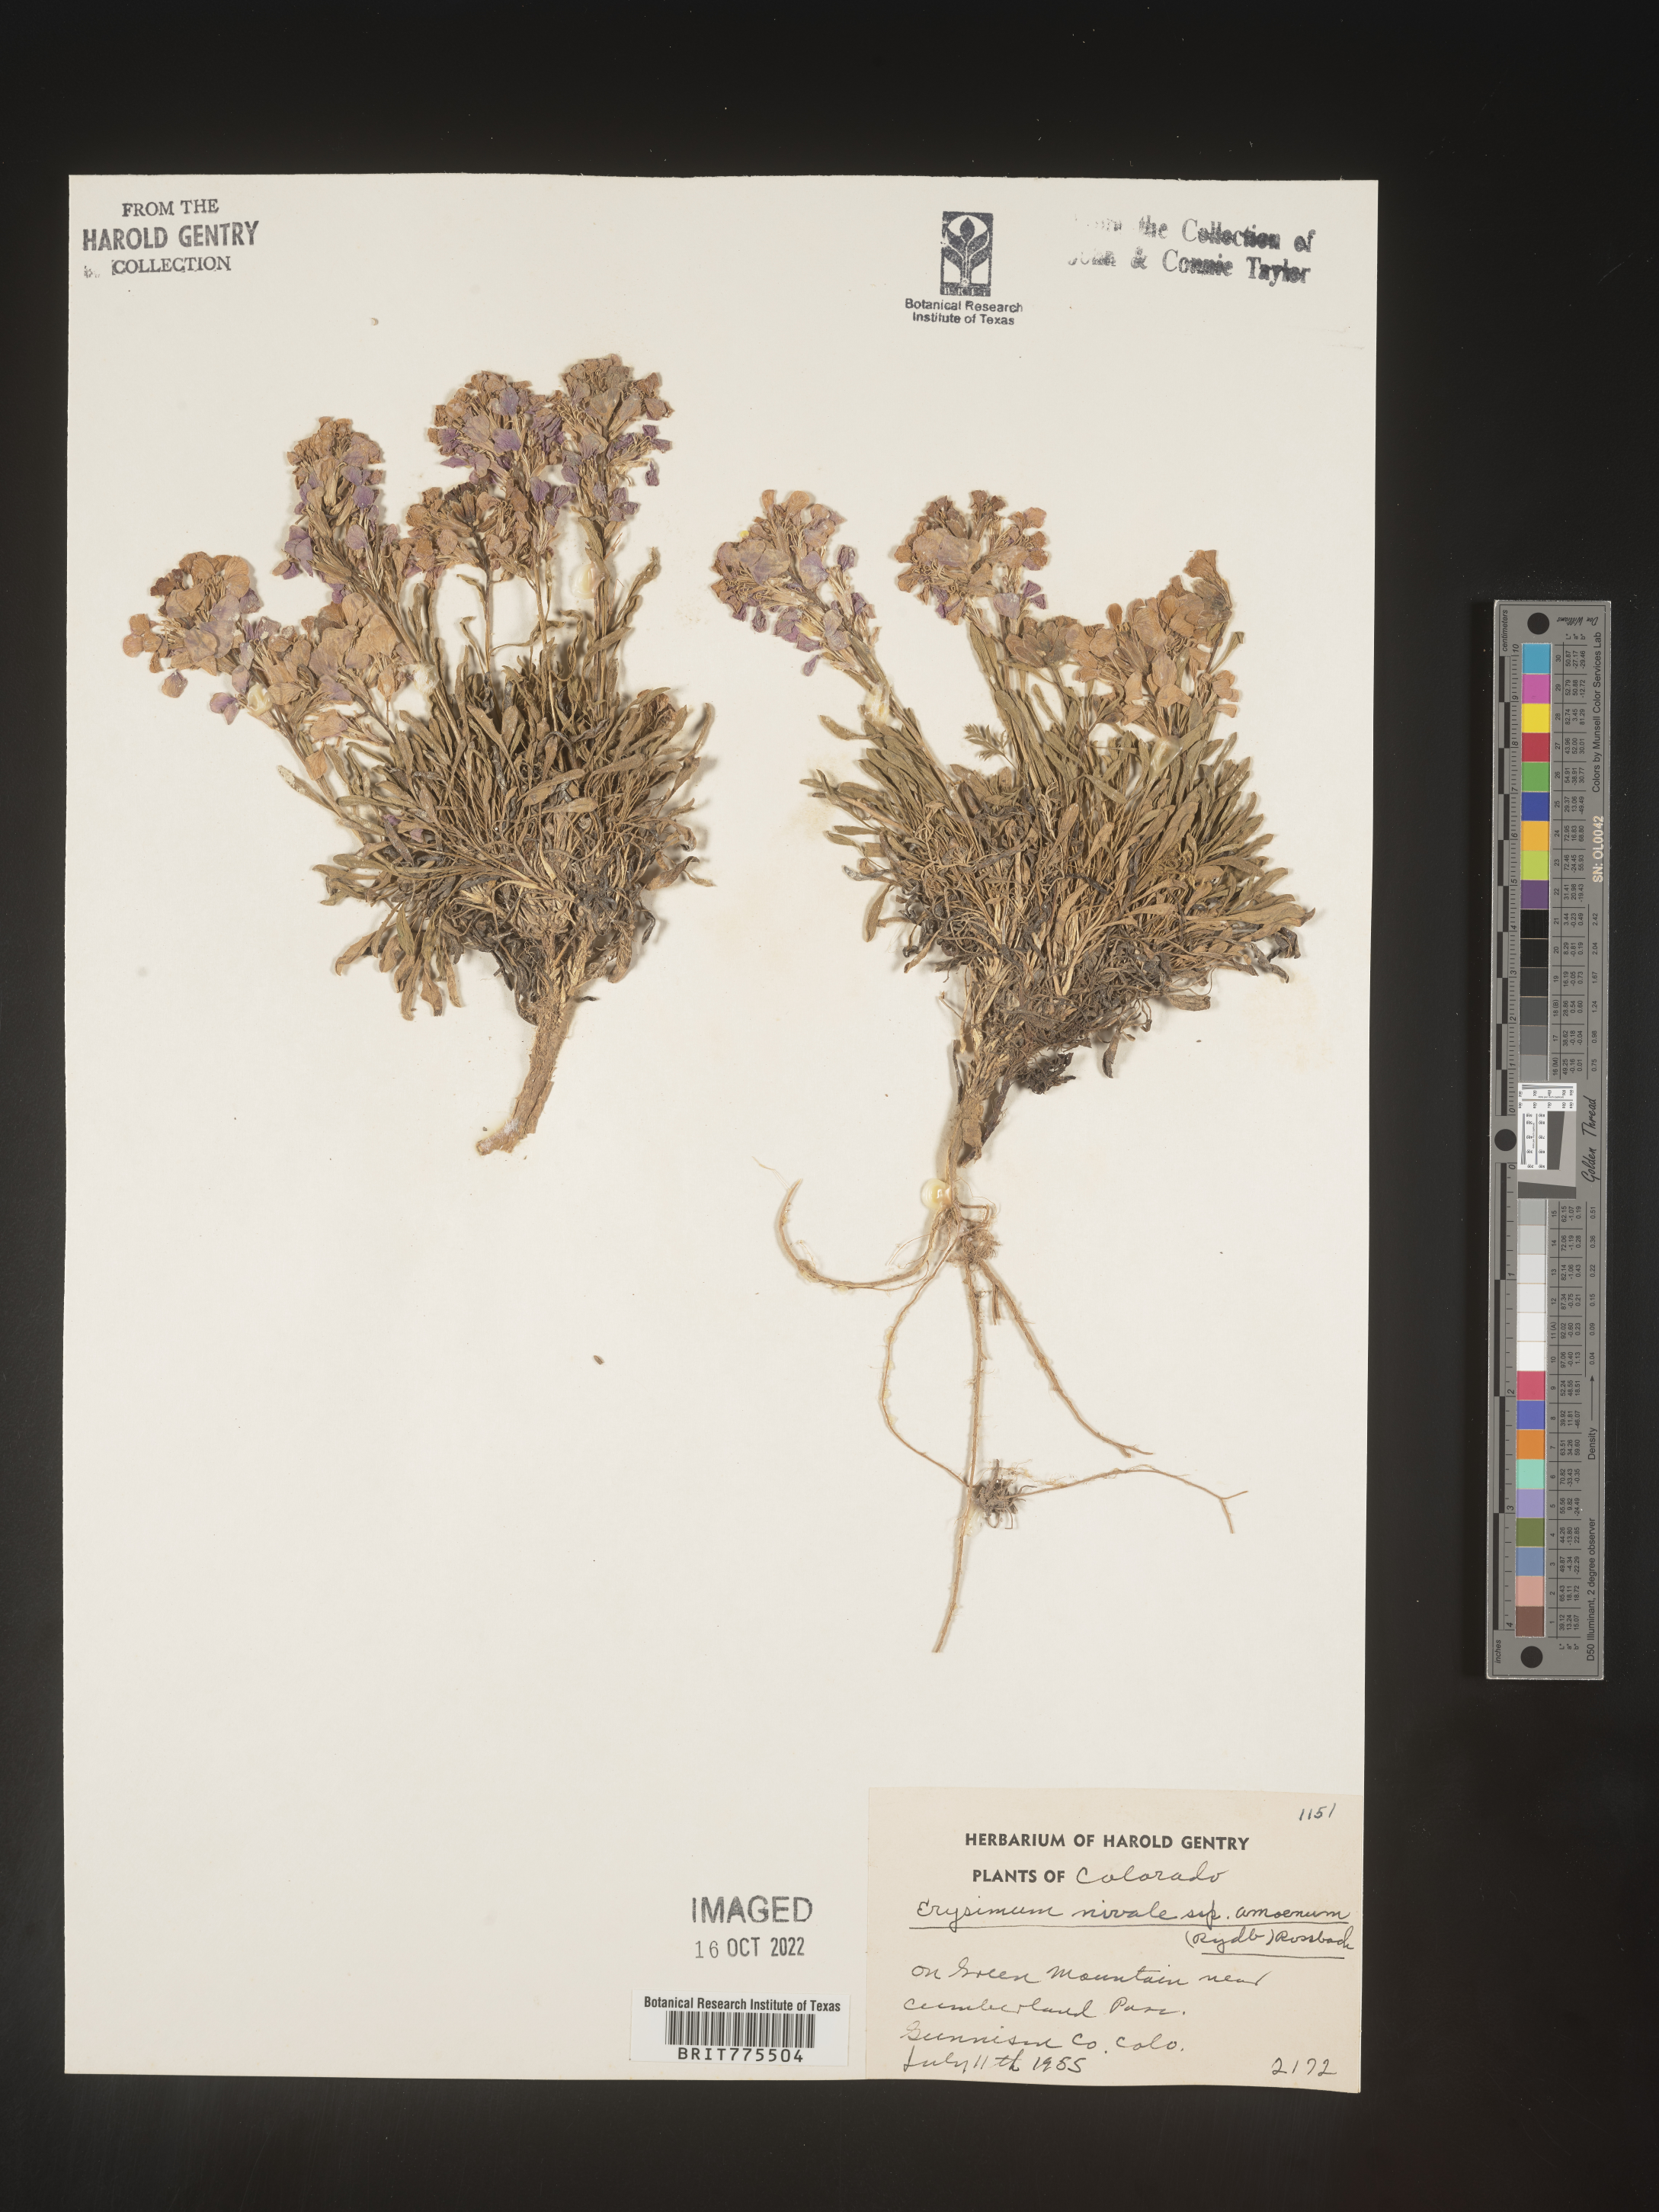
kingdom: Plantae
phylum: Tracheophyta
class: Magnoliopsida
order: Brassicales
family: Brassicaceae
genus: Erysimum
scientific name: Erysimum
